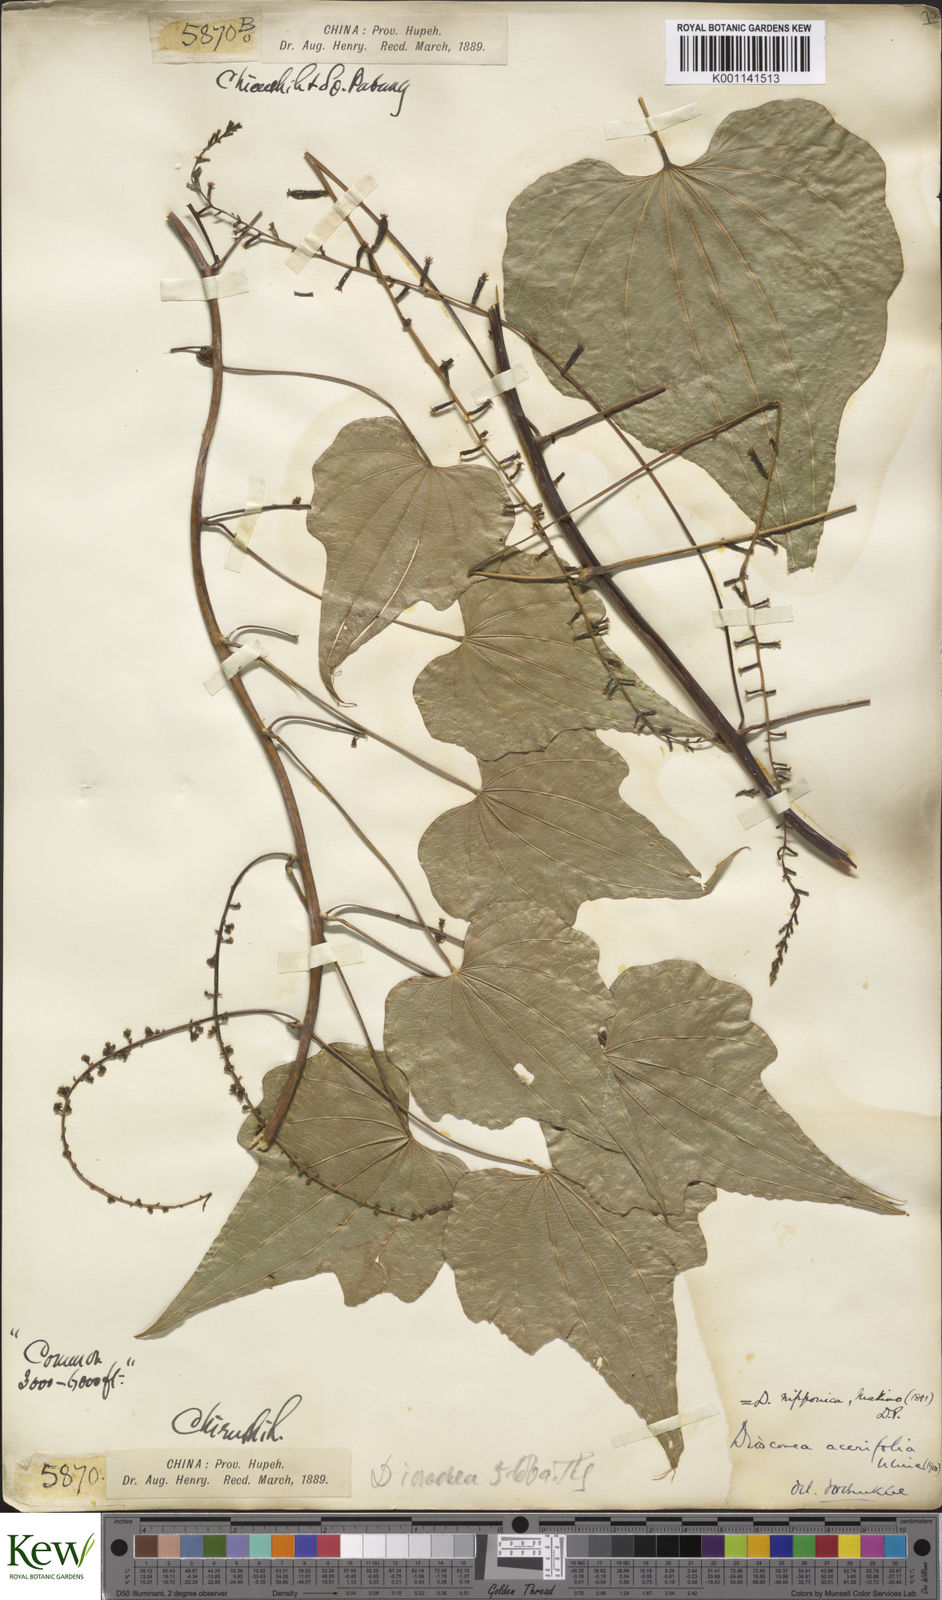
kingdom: Plantae
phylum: Tracheophyta
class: Liliopsida
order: Dioscoreales
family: Dioscoreaceae
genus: Dioscorea
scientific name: Dioscorea nipponica
